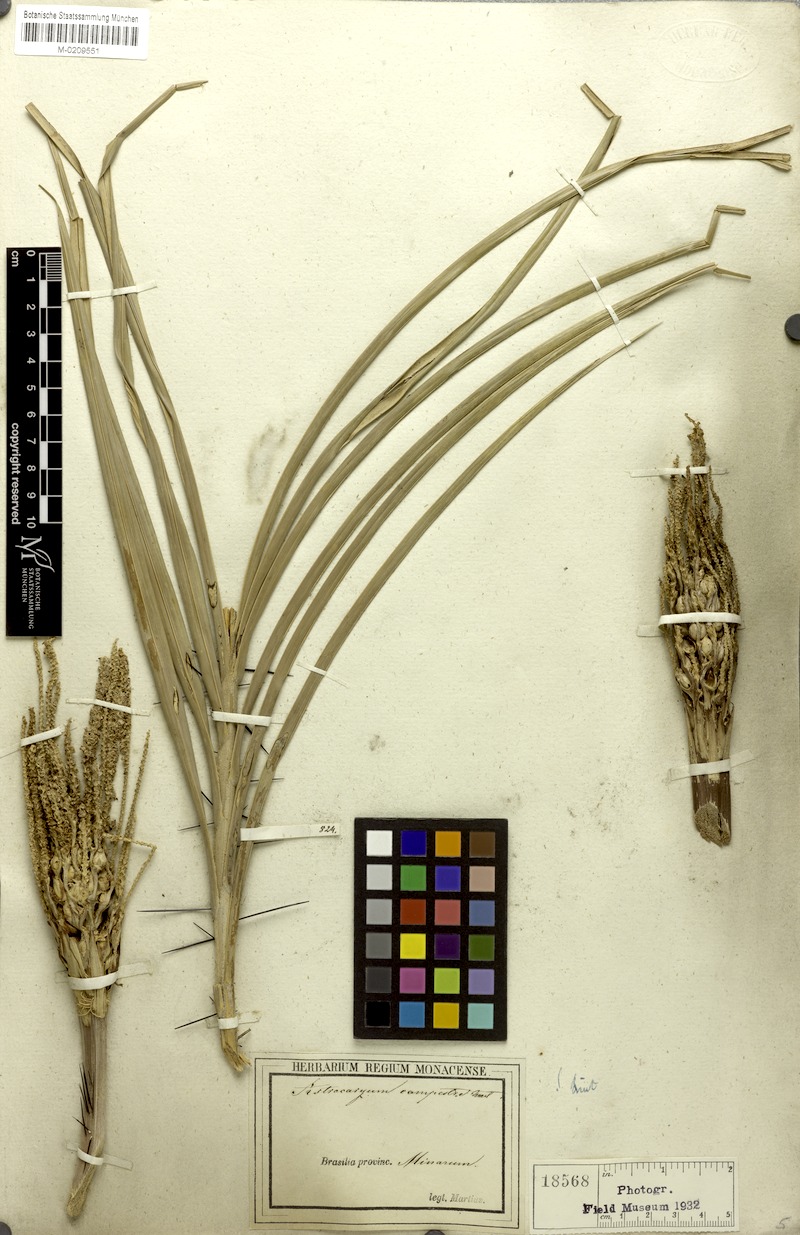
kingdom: Plantae
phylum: Tracheophyta
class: Liliopsida
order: Arecales
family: Arecaceae
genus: Astrocaryum
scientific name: Astrocaryum campestre
